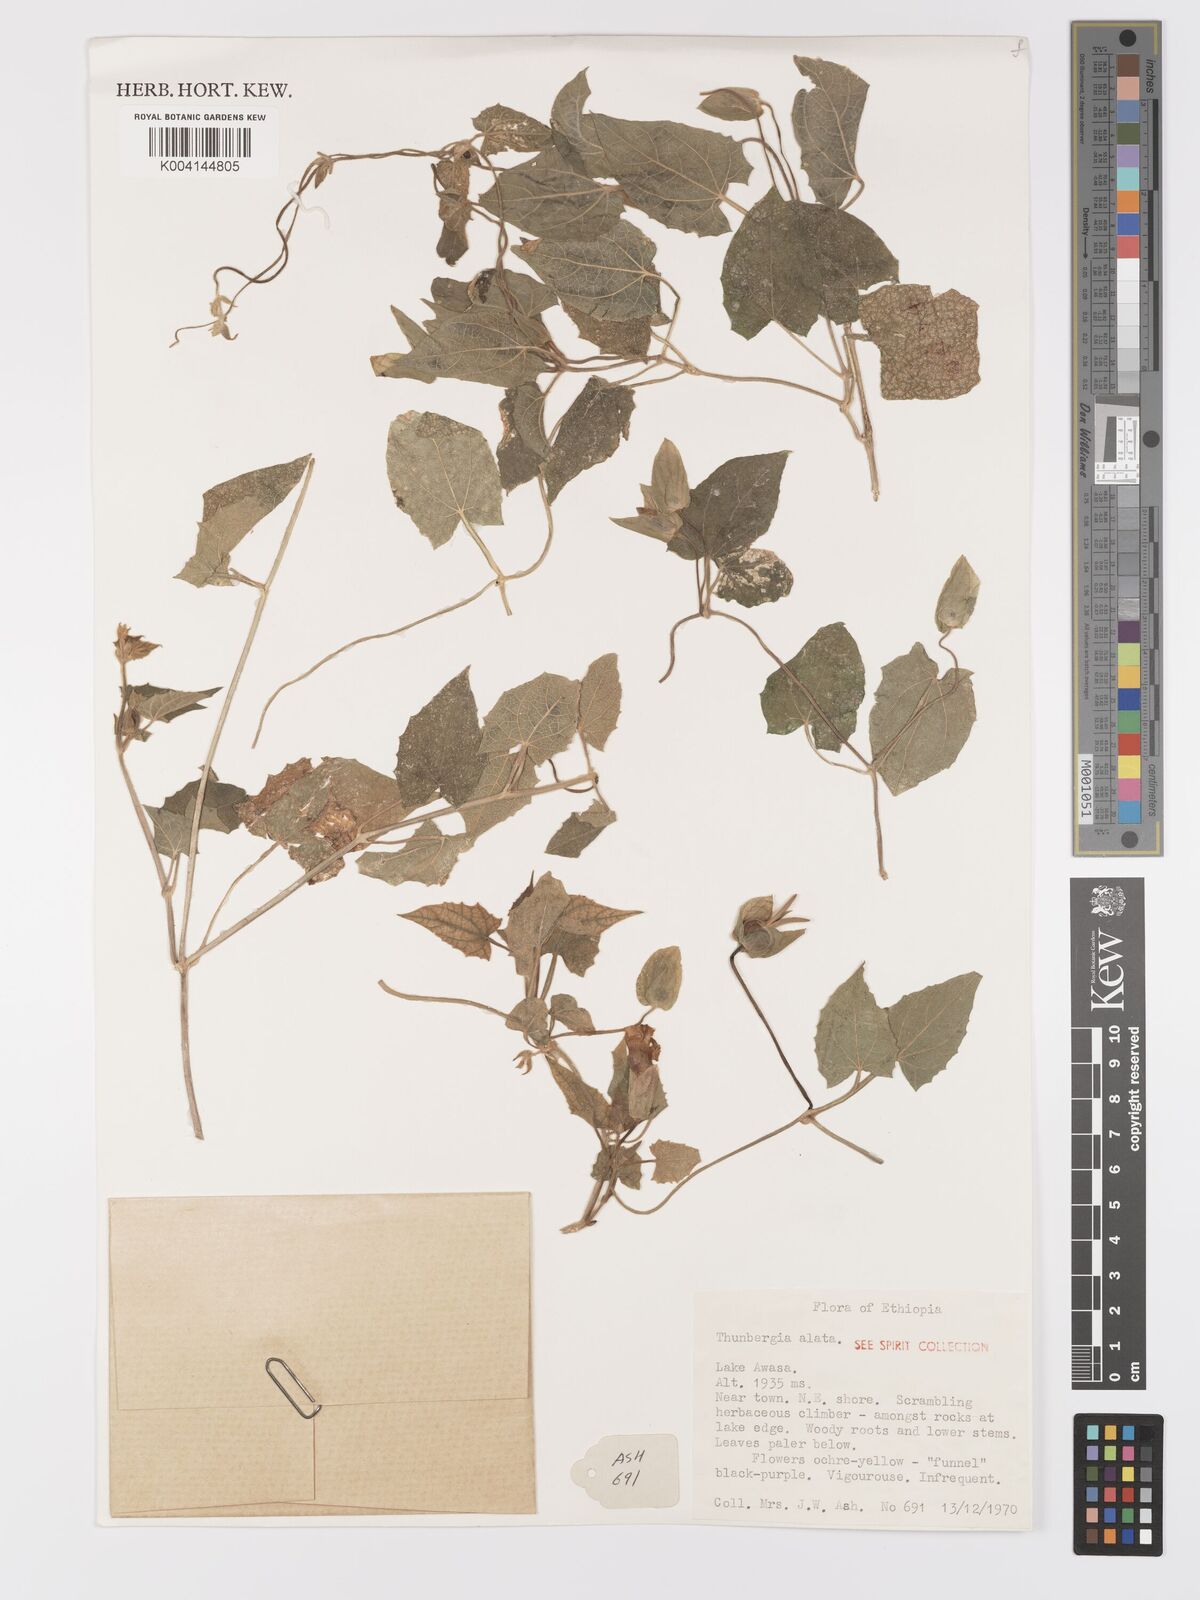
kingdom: Plantae
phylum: Tracheophyta
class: Magnoliopsida
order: Lamiales
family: Acanthaceae
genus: Thunbergia
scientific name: Thunbergia alata
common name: Blackeyed susan vine
